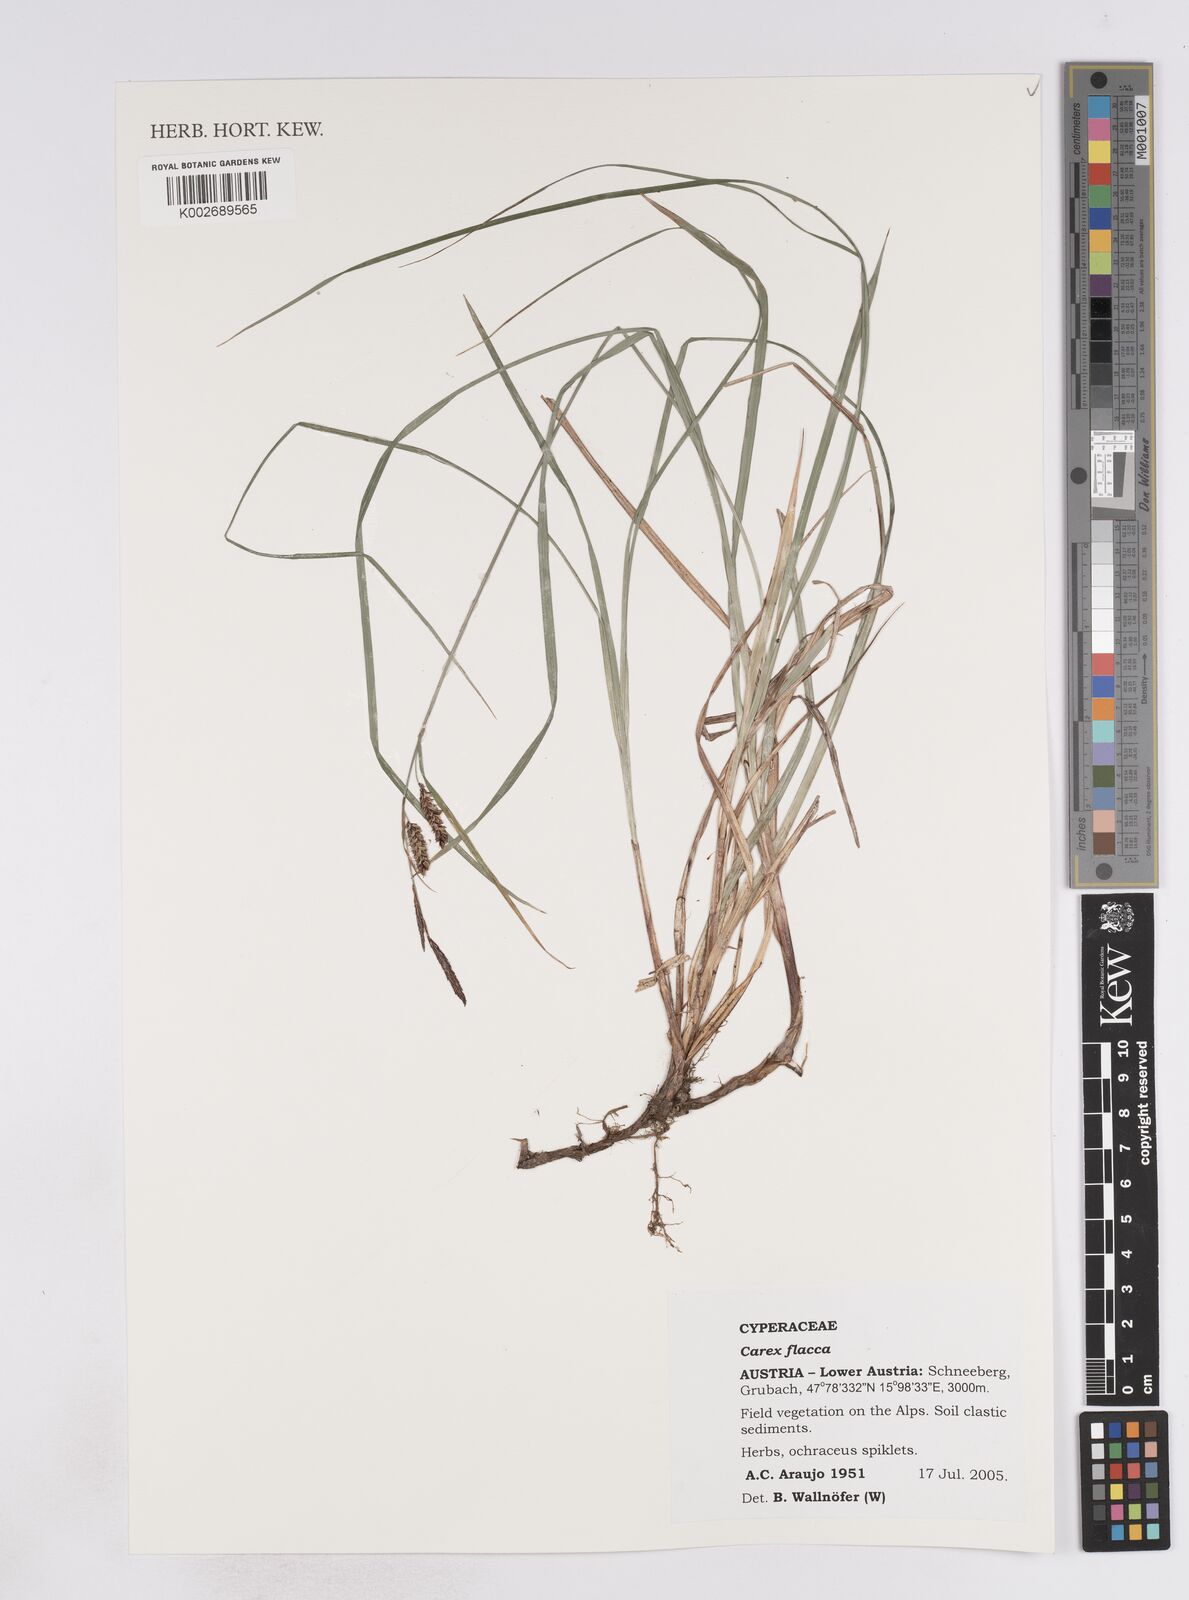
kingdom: Plantae
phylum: Tracheophyta
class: Liliopsida
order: Poales
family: Cyperaceae
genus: Carex
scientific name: Carex flacca
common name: Glaucous sedge
